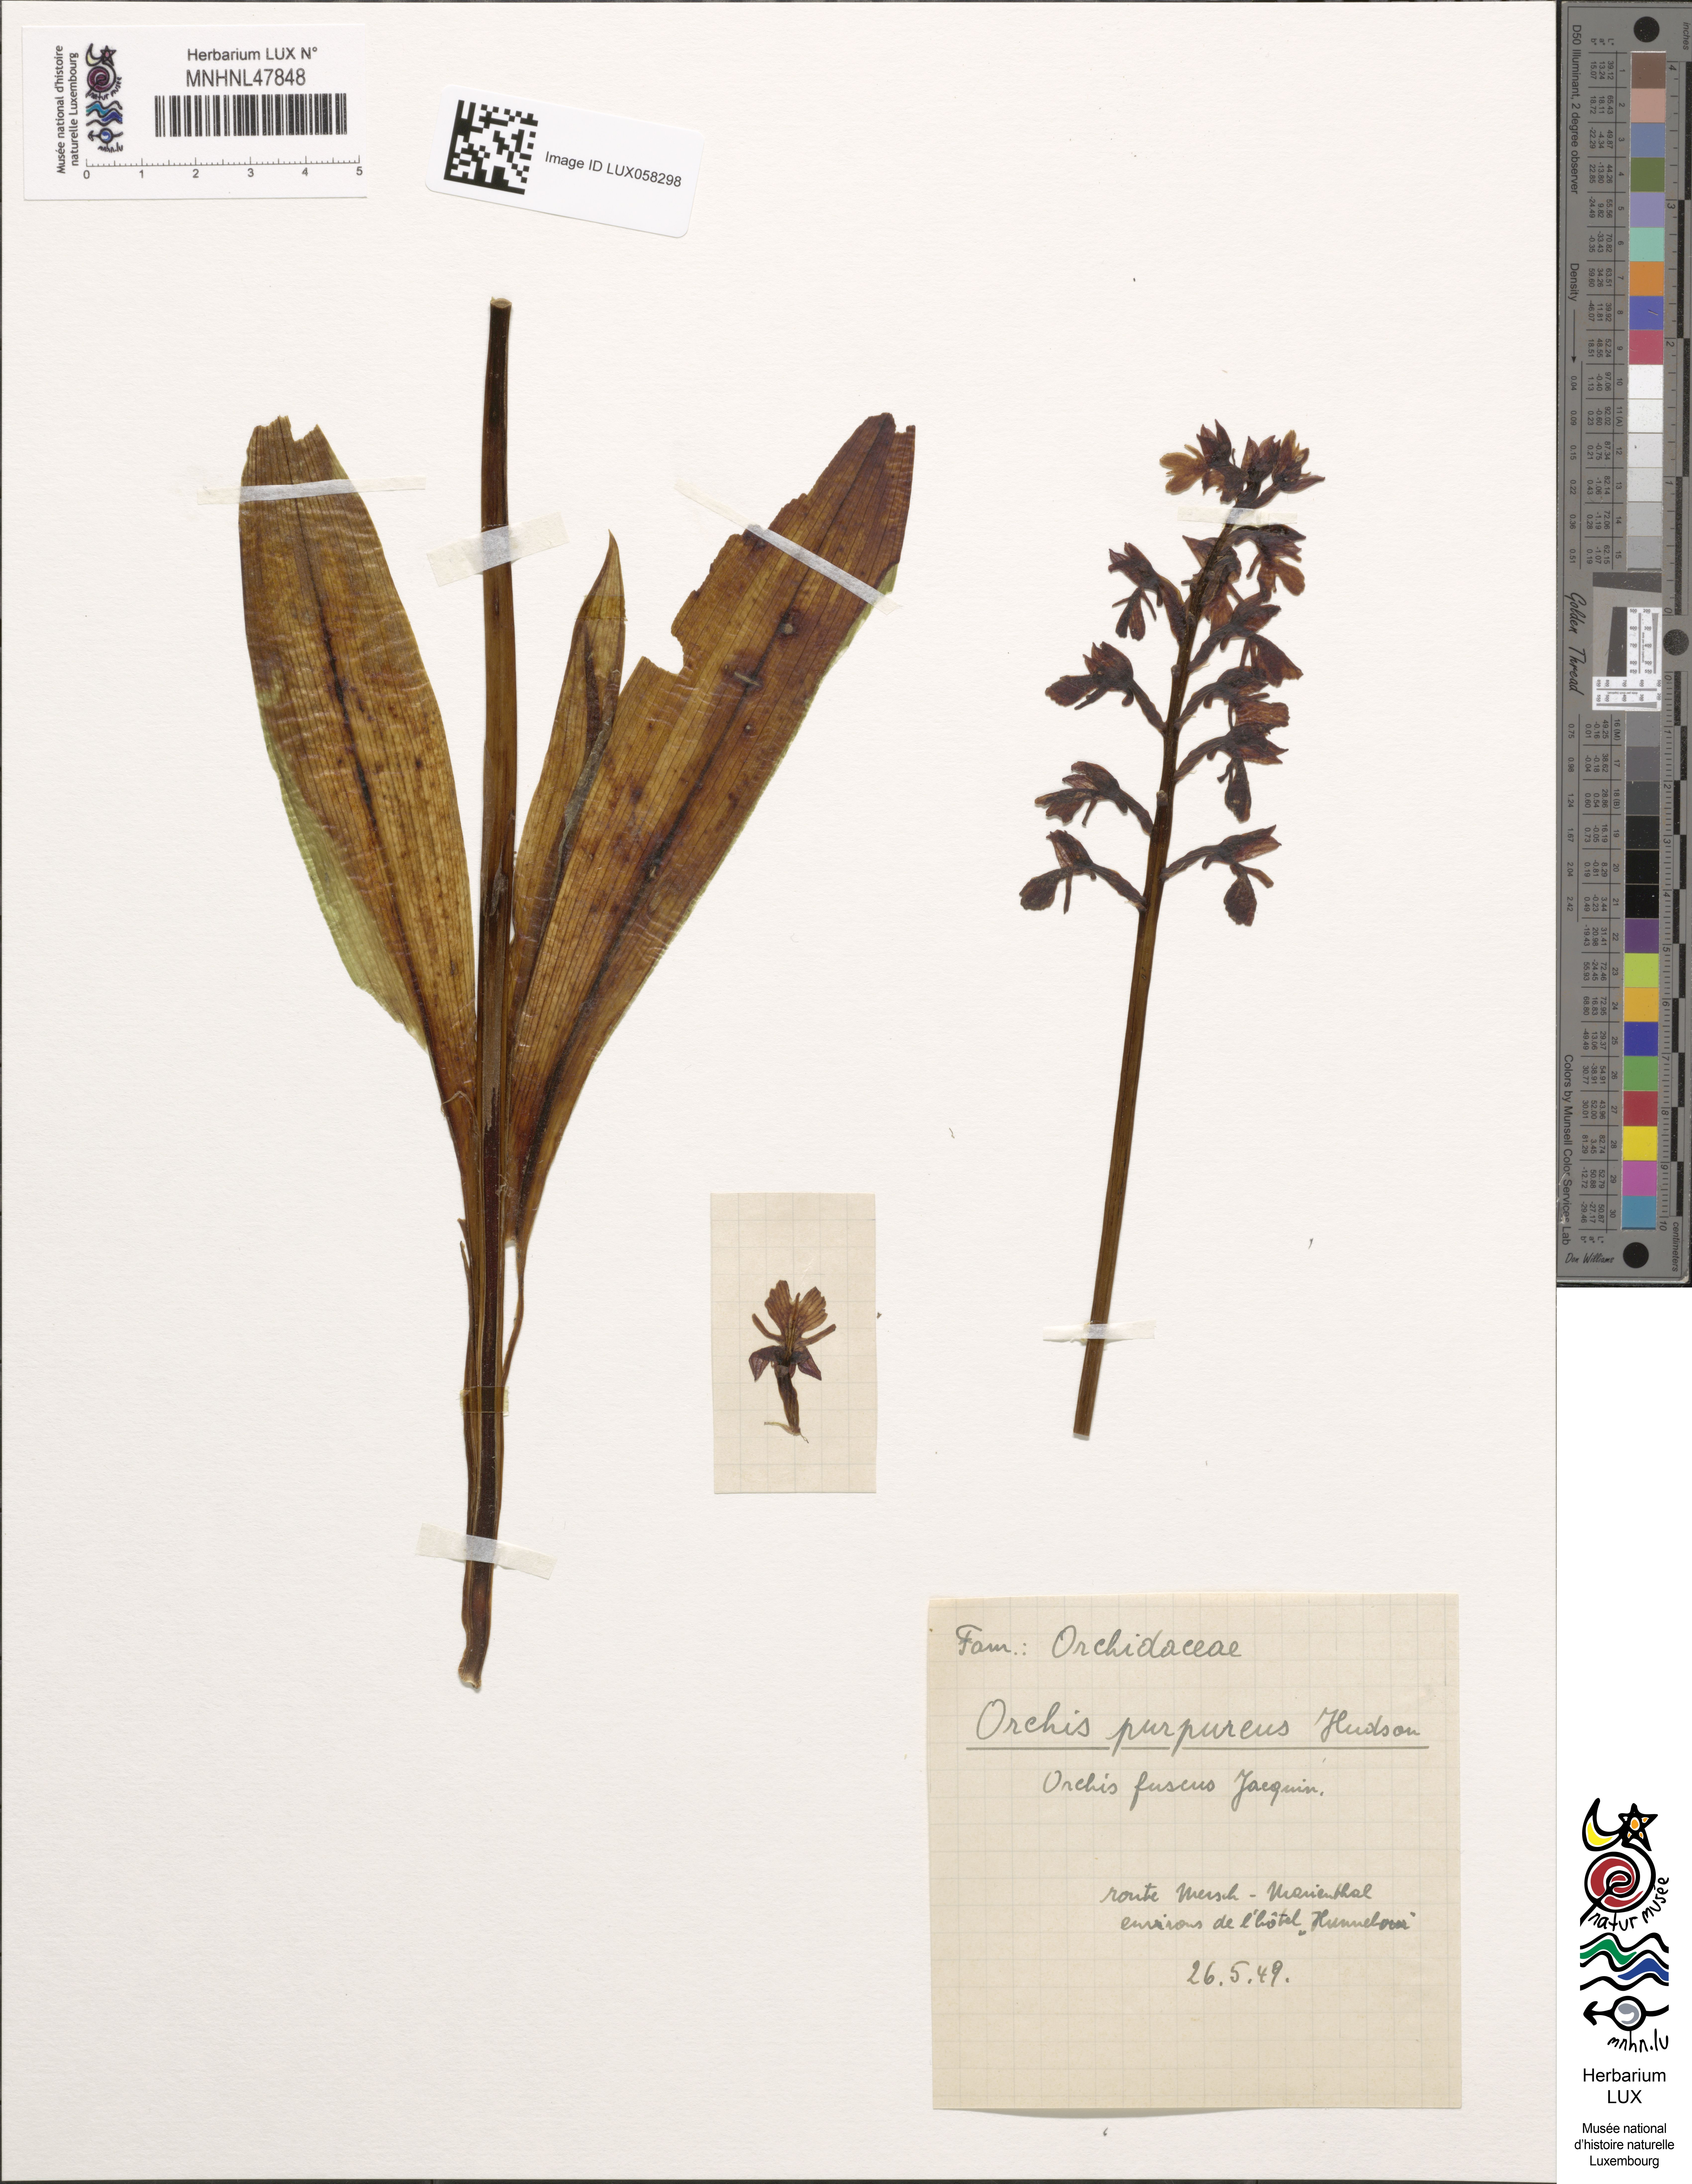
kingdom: Plantae
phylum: Tracheophyta
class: Liliopsida
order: Asparagales
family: Orchidaceae
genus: Orchis
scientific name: Orchis purpurea
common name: Lady orchid
